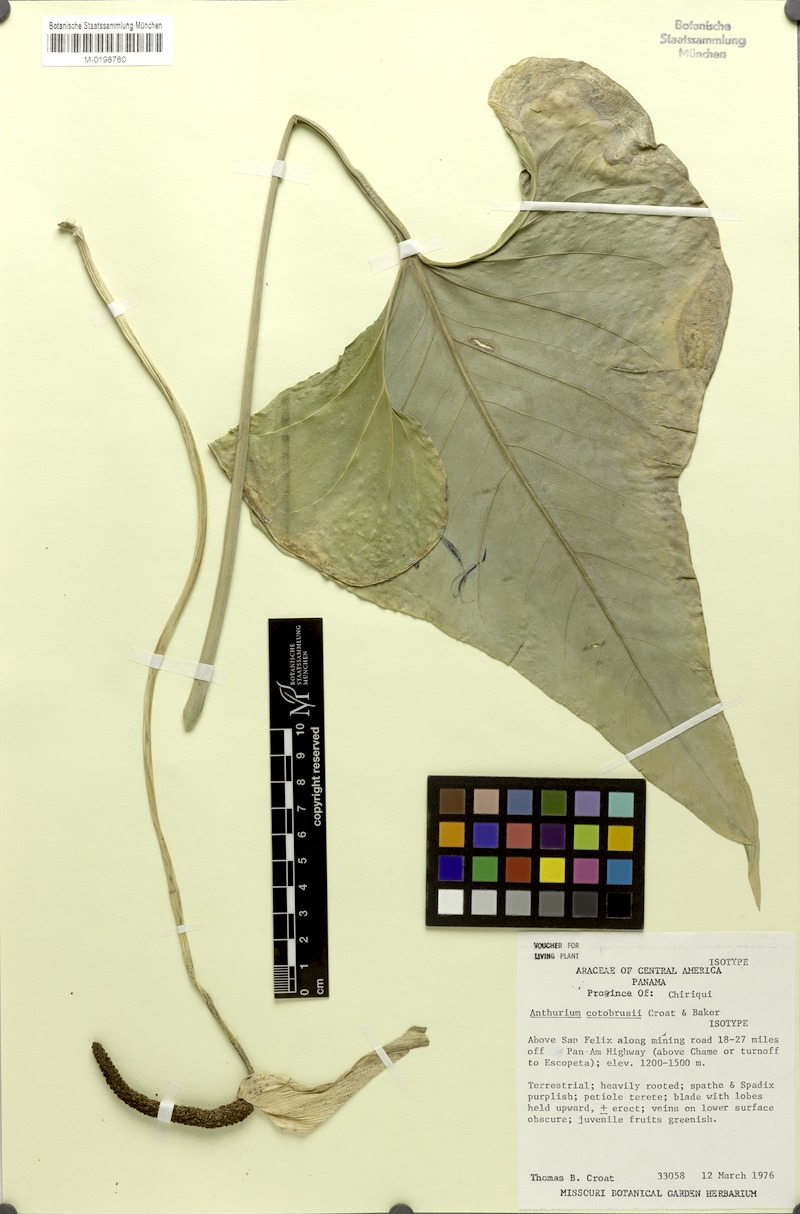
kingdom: Plantae
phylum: Tracheophyta
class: Liliopsida
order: Alismatales
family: Araceae
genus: Anthurium
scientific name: Anthurium cotobrusii
